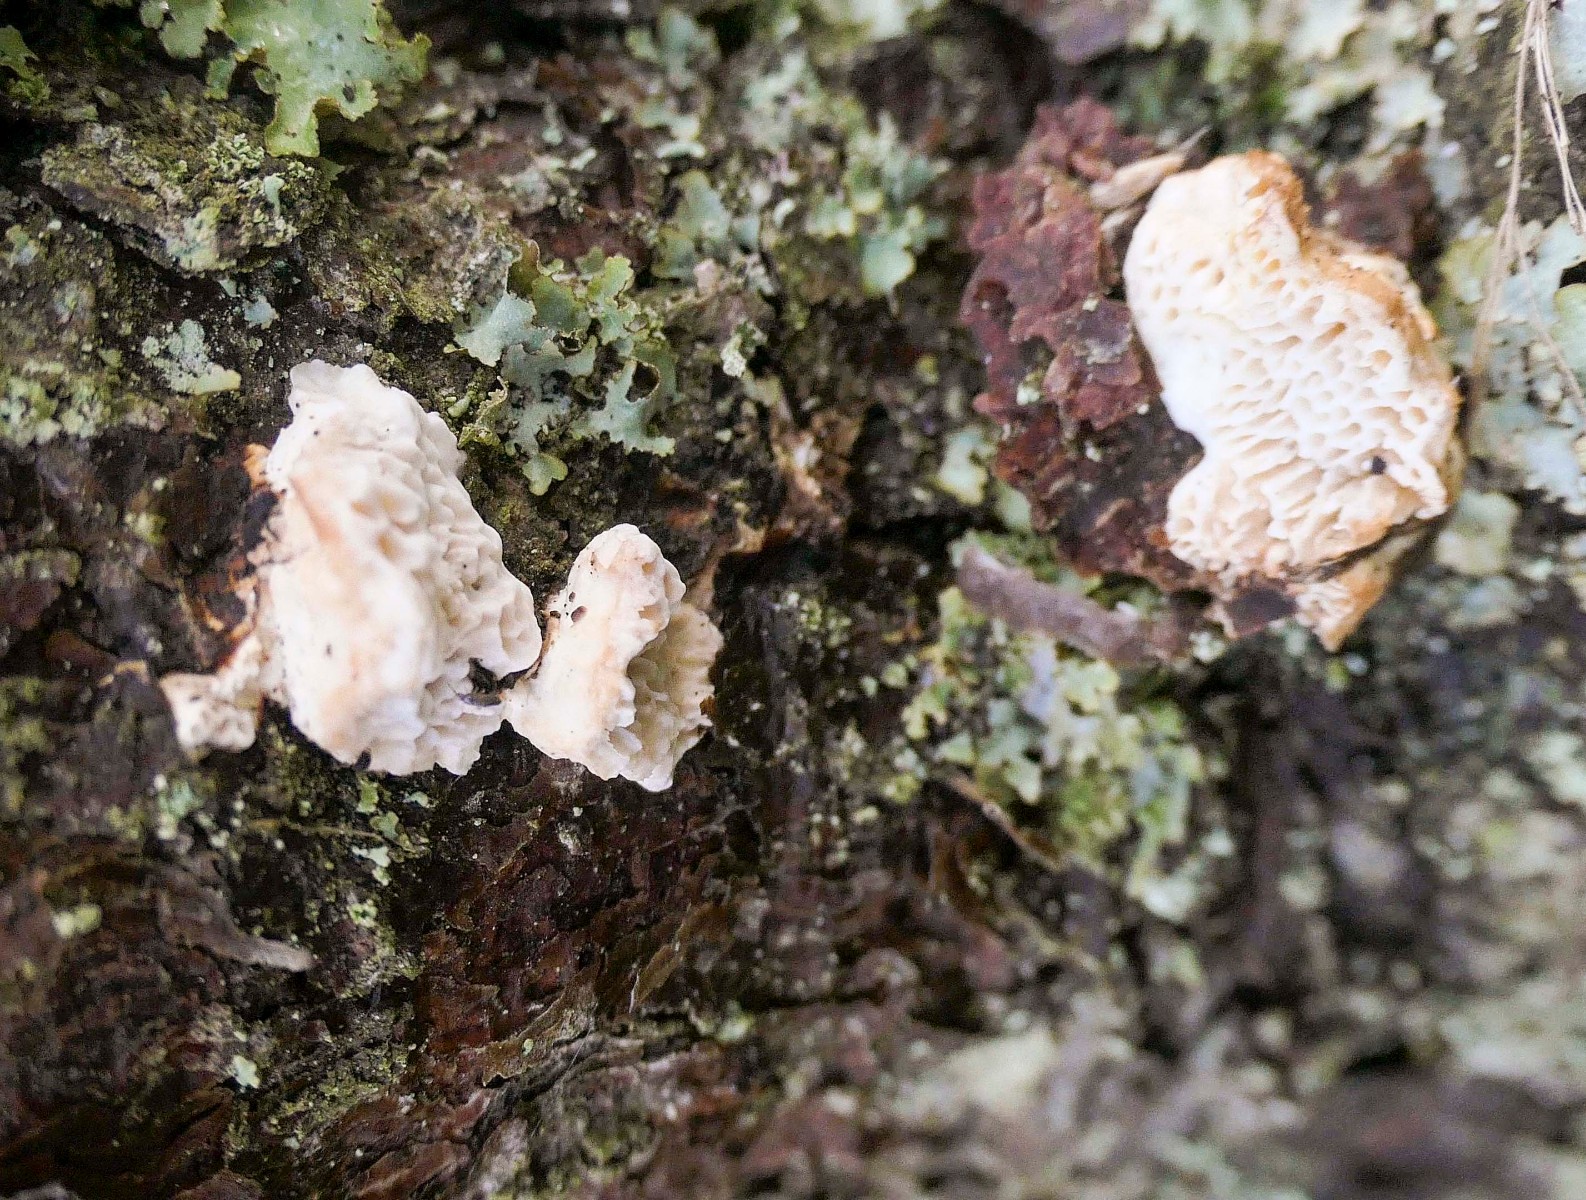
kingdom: Fungi
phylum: Basidiomycota
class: Agaricomycetes
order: Polyporales
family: Fomitopsidaceae
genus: Fomitopsis
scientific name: Fomitopsis
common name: fyrre-skiveporesvamp
